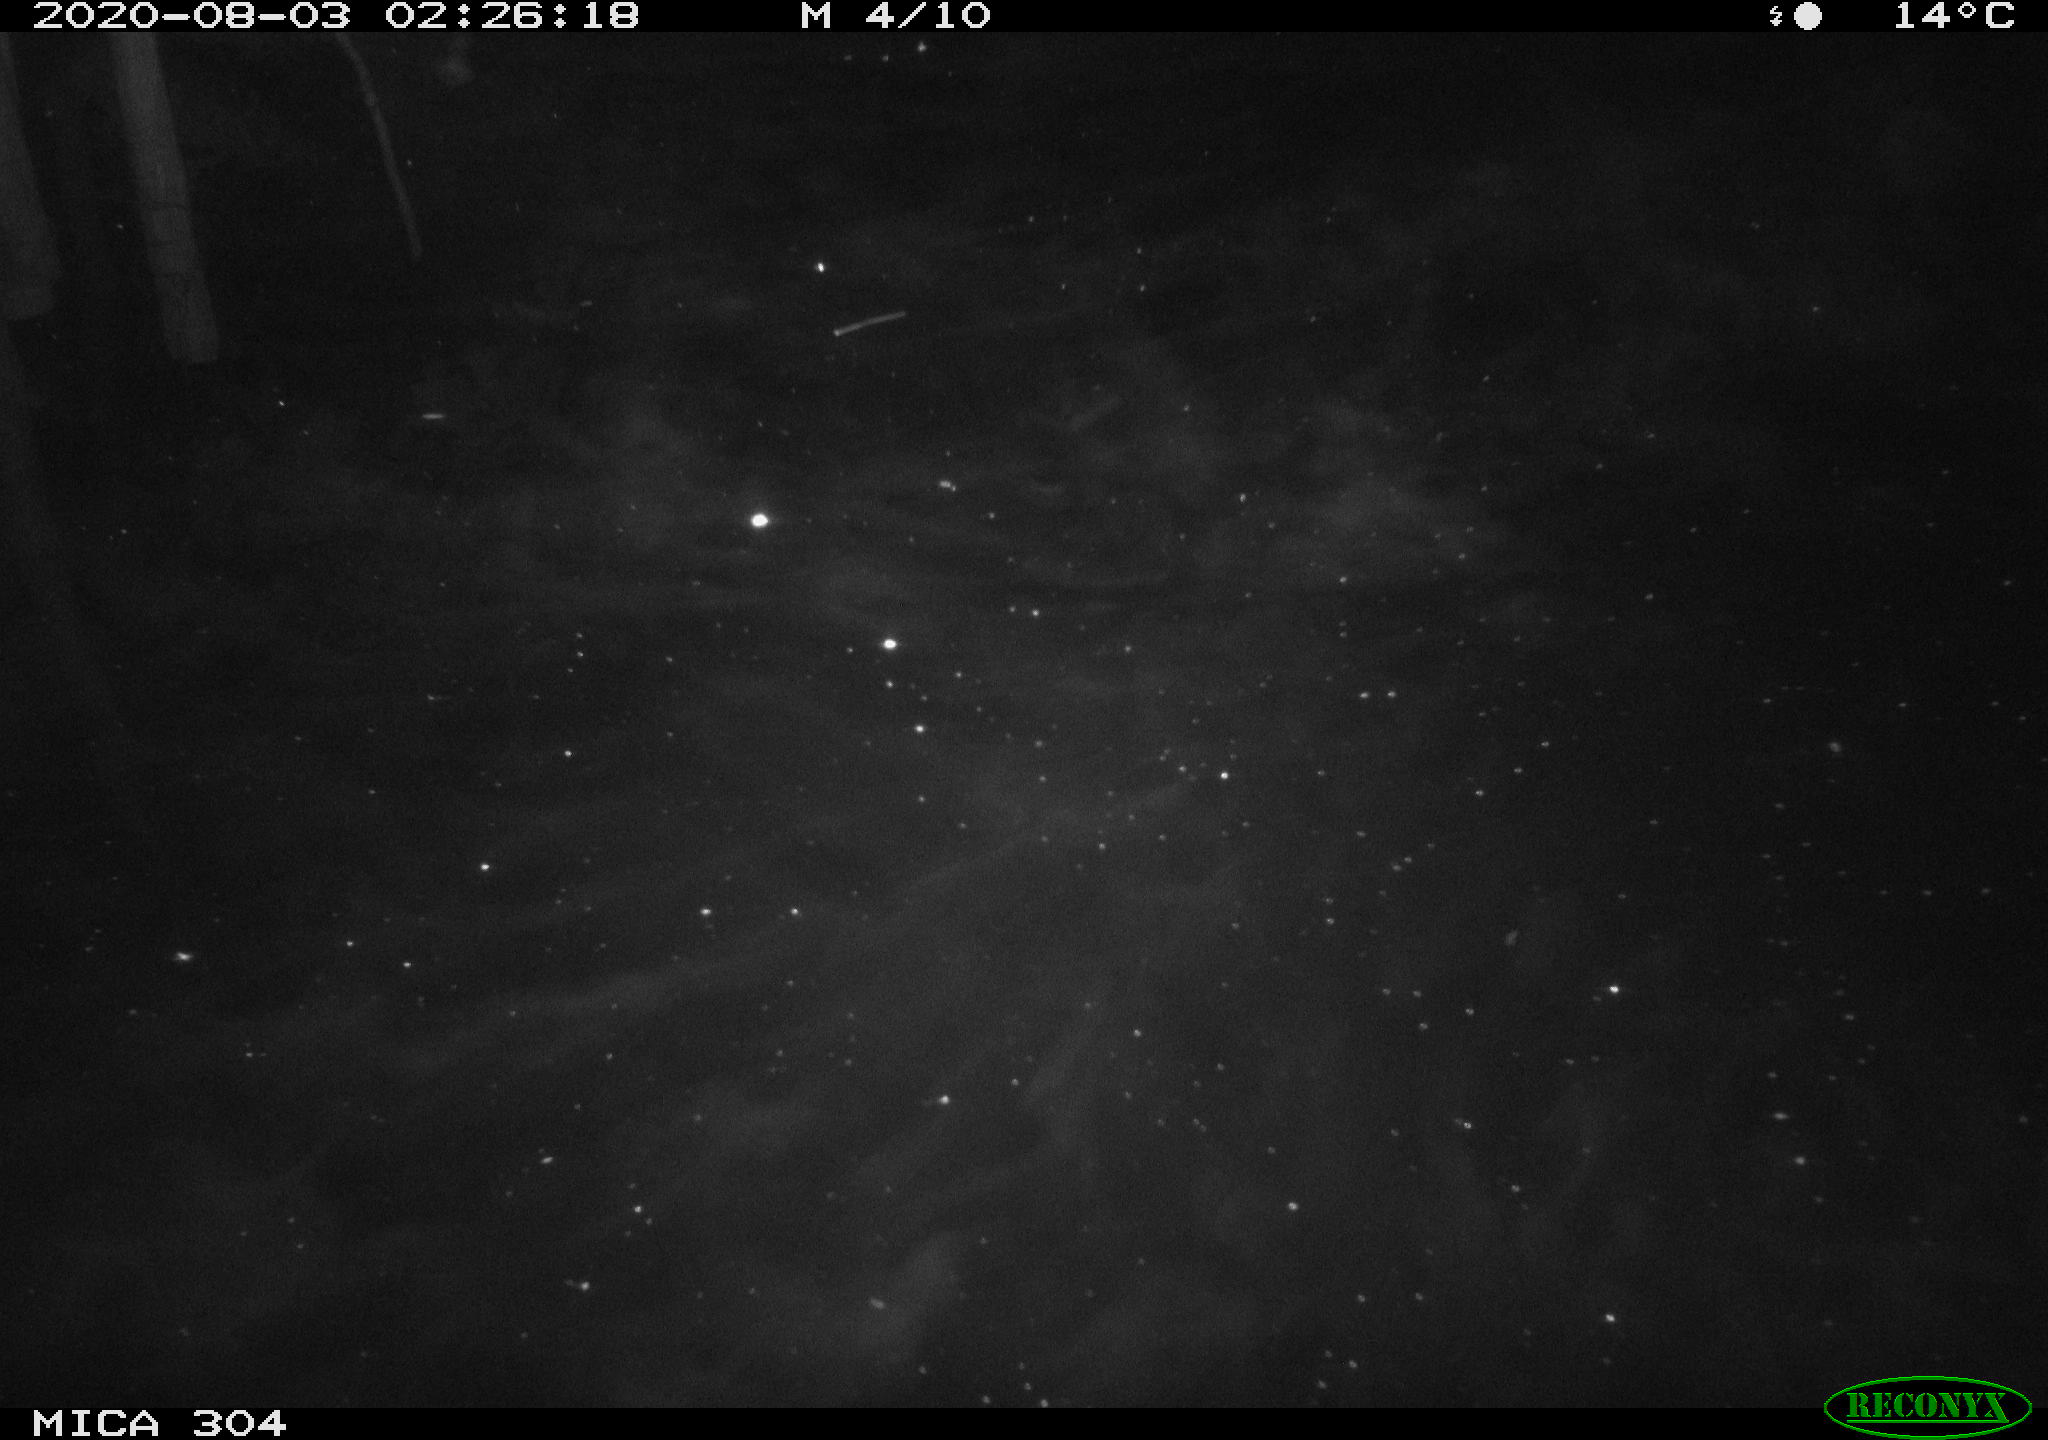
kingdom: Animalia
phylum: Chordata
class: Mammalia
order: Rodentia
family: Cricetidae
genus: Ondatra
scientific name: Ondatra zibethicus
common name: Muskrat
